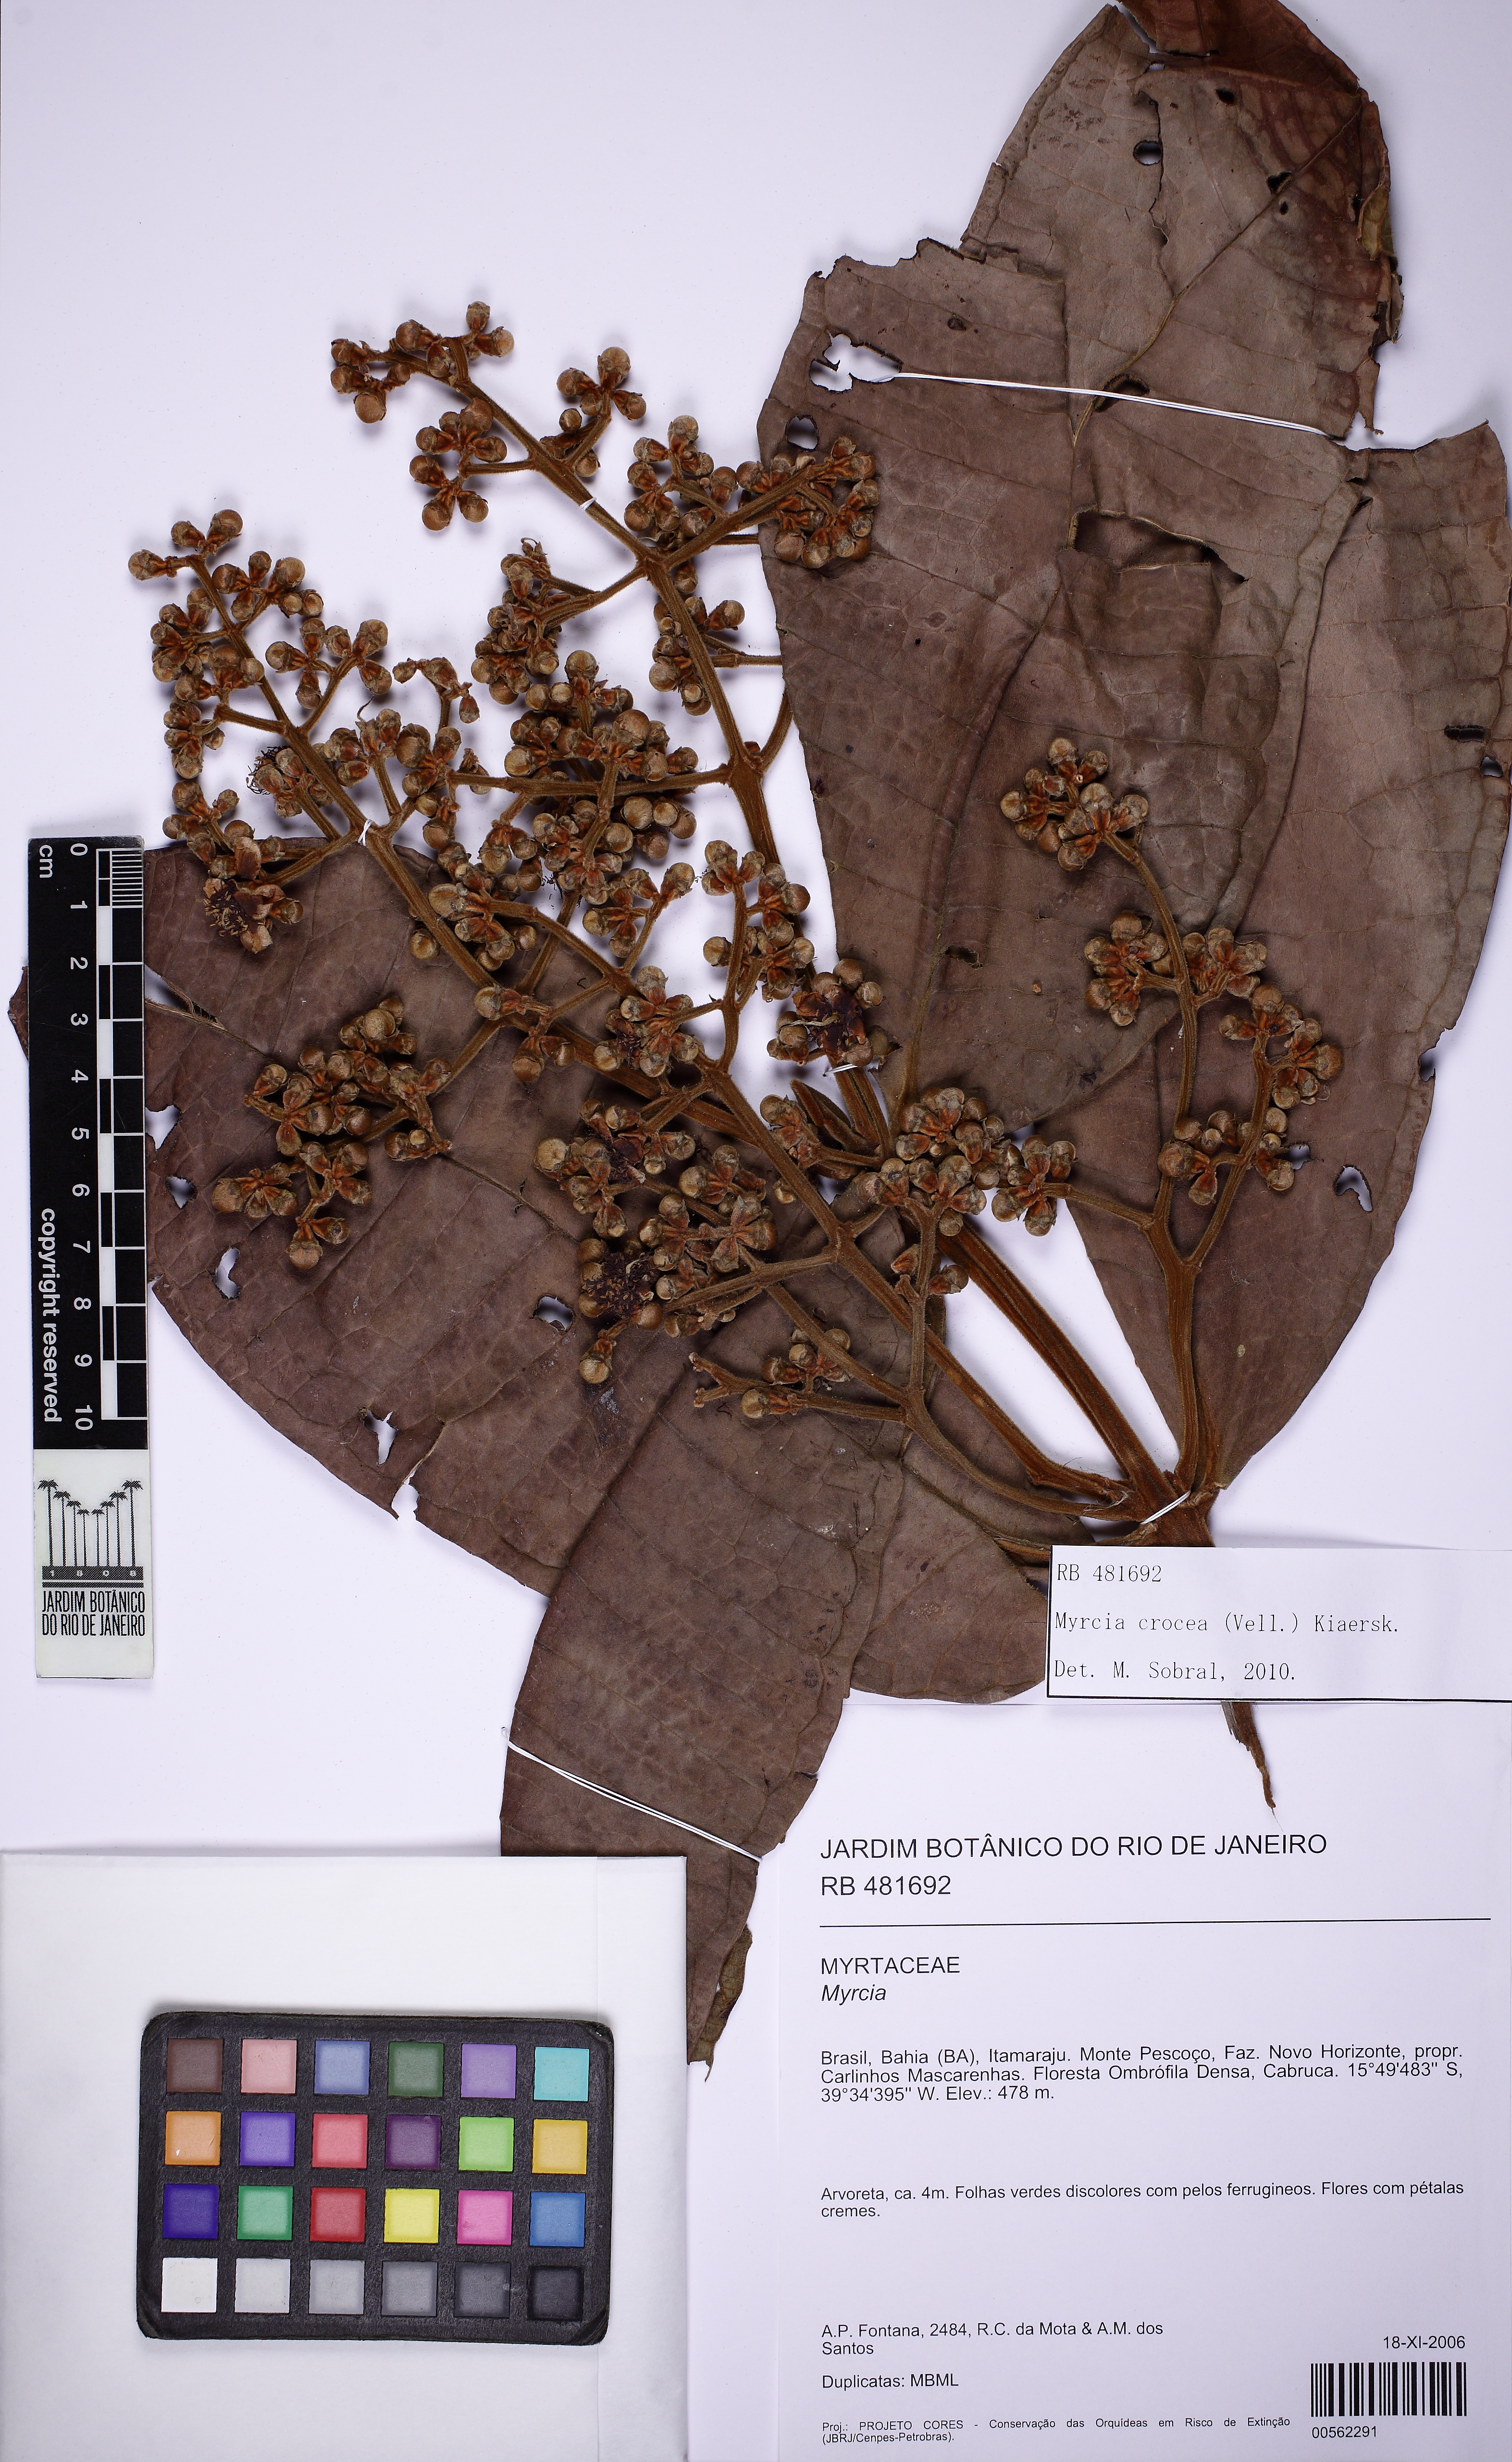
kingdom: Plantae
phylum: Tracheophyta
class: Magnoliopsida
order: Myrtales
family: Myrtaceae
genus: Myrcia
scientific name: Myrcia crocea
